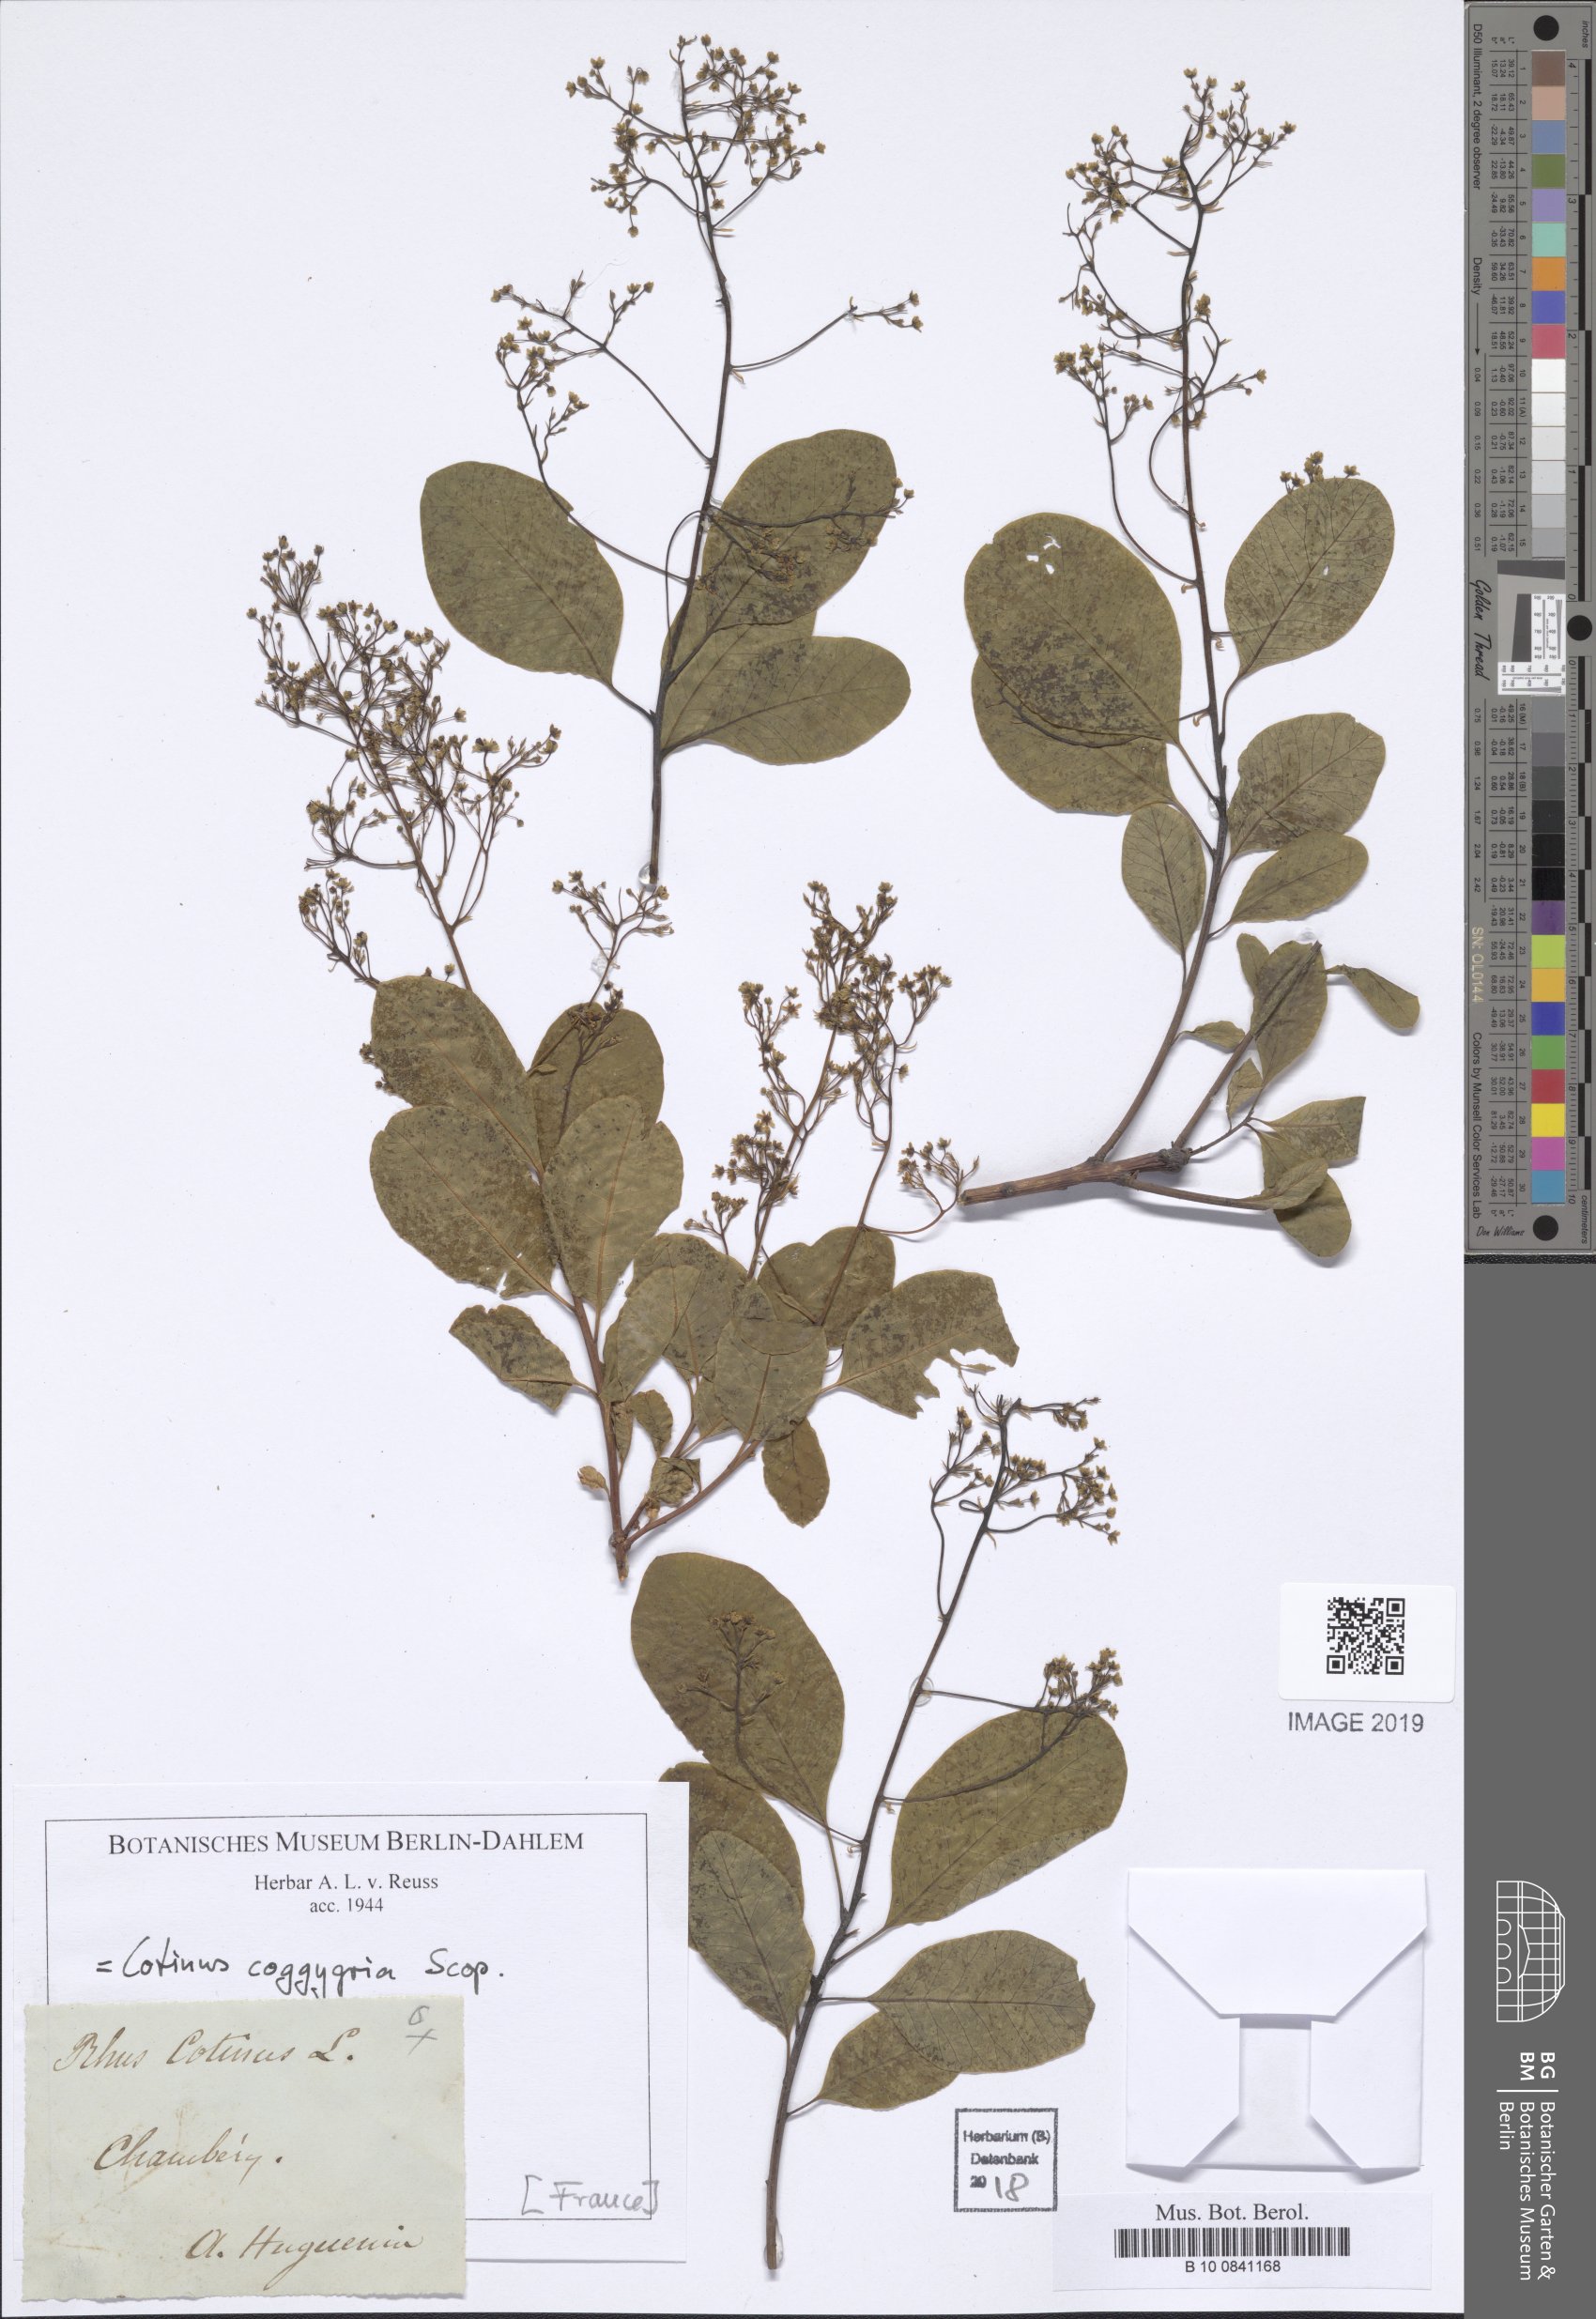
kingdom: Plantae
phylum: Tracheophyta
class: Magnoliopsida
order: Sapindales
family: Anacardiaceae
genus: Cotinus
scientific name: Cotinus coggygria
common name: Smoke-tree
